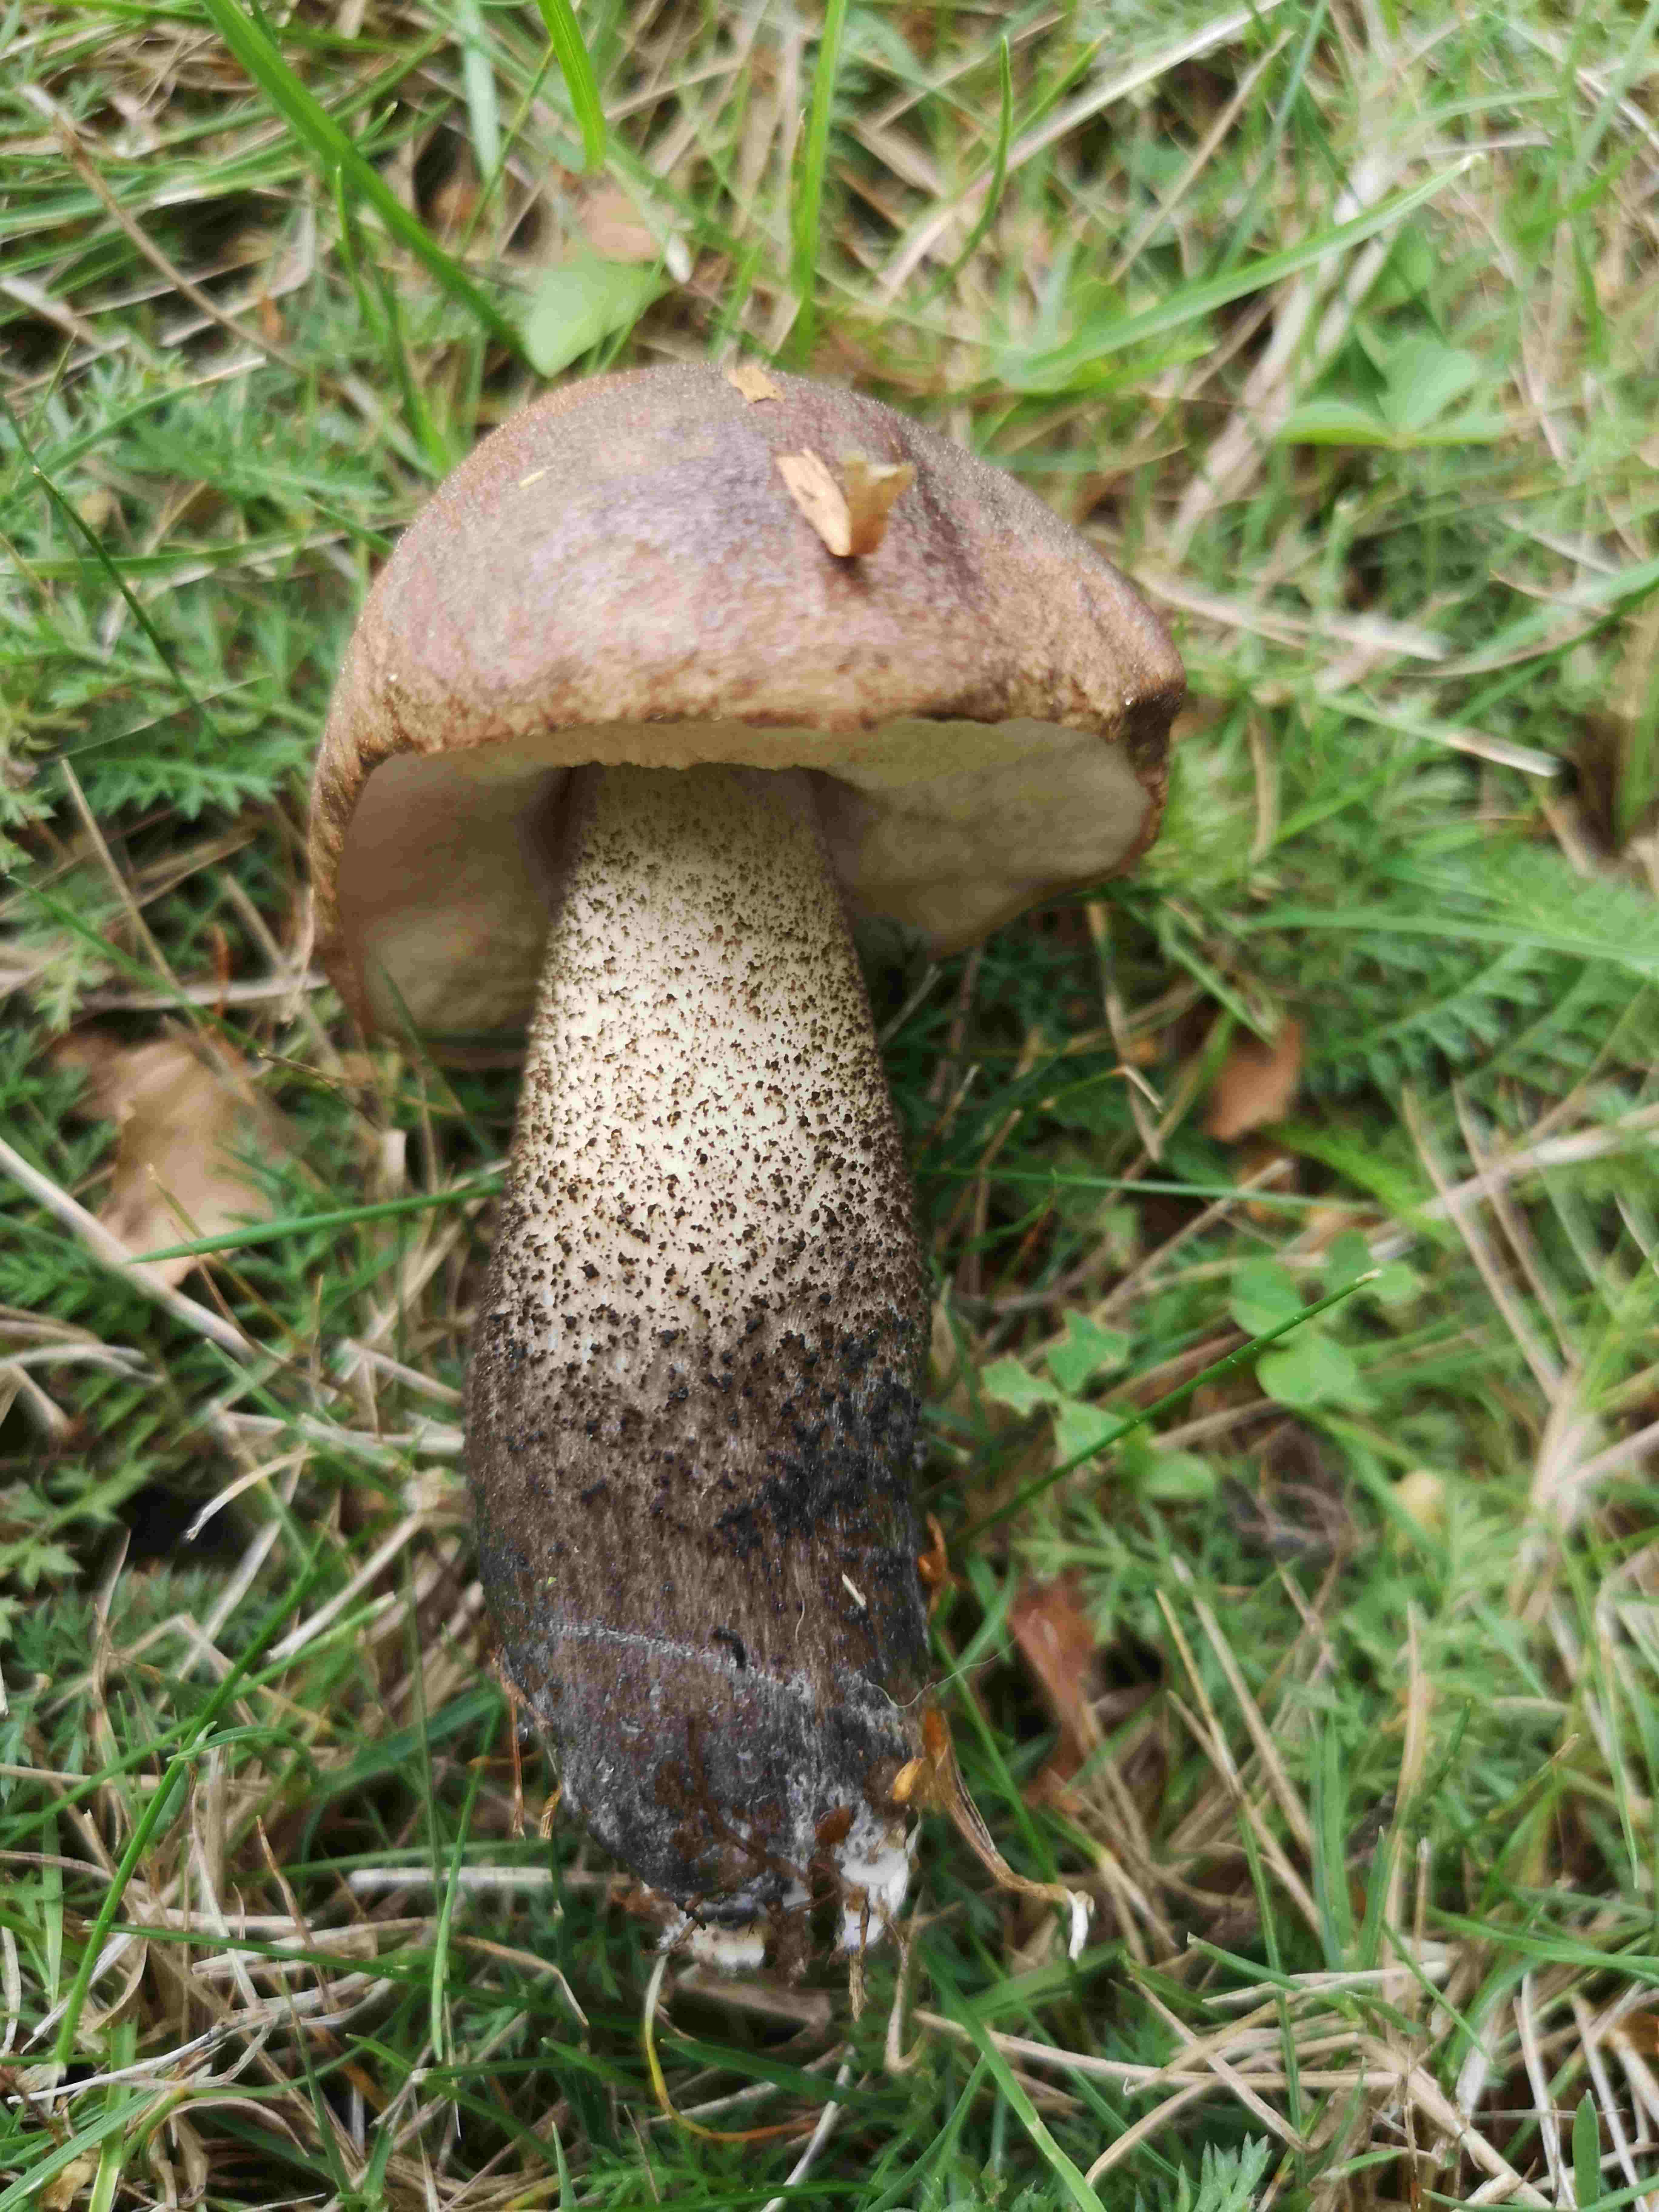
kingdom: Fungi
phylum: Basidiomycota
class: Agaricomycetes
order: Boletales
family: Boletaceae
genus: Leccinum
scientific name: Leccinum scabrum
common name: brun skælrørhat
